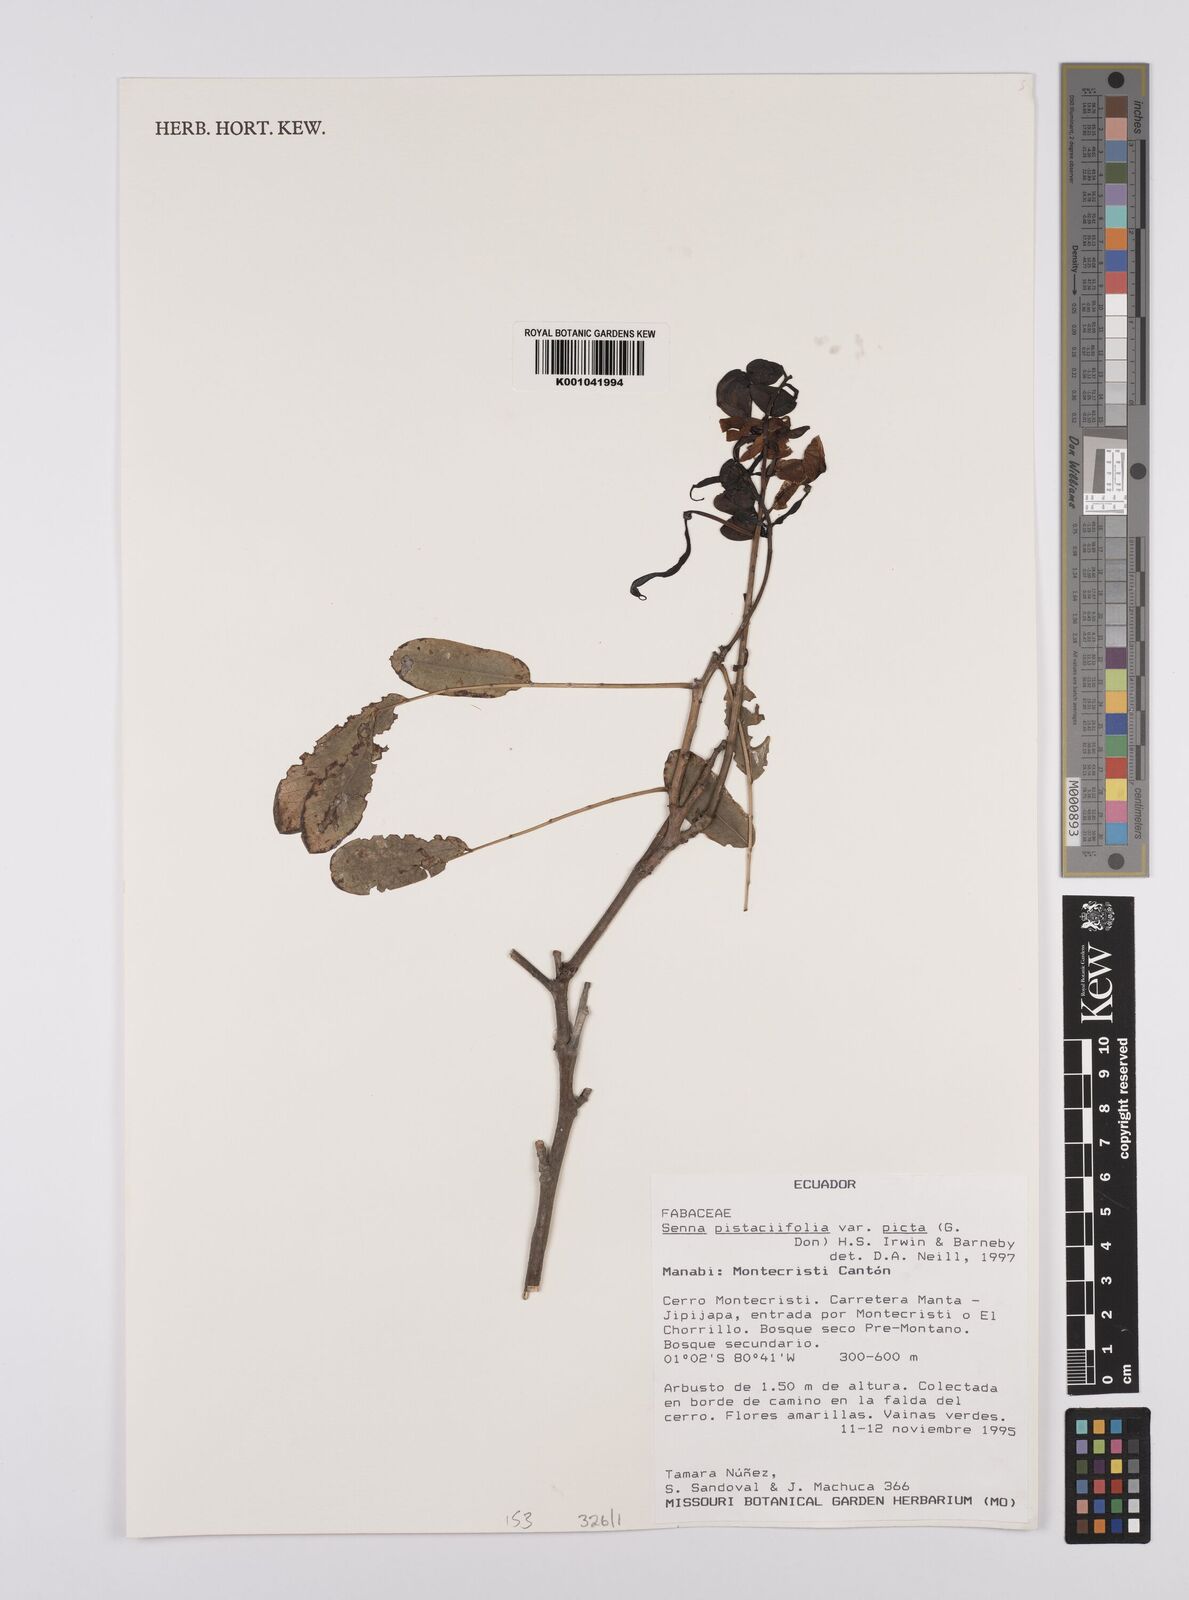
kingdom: Plantae
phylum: Tracheophyta
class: Magnoliopsida
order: Fabales
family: Fabaceae
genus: Senna
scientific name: Senna pistaciifolia
